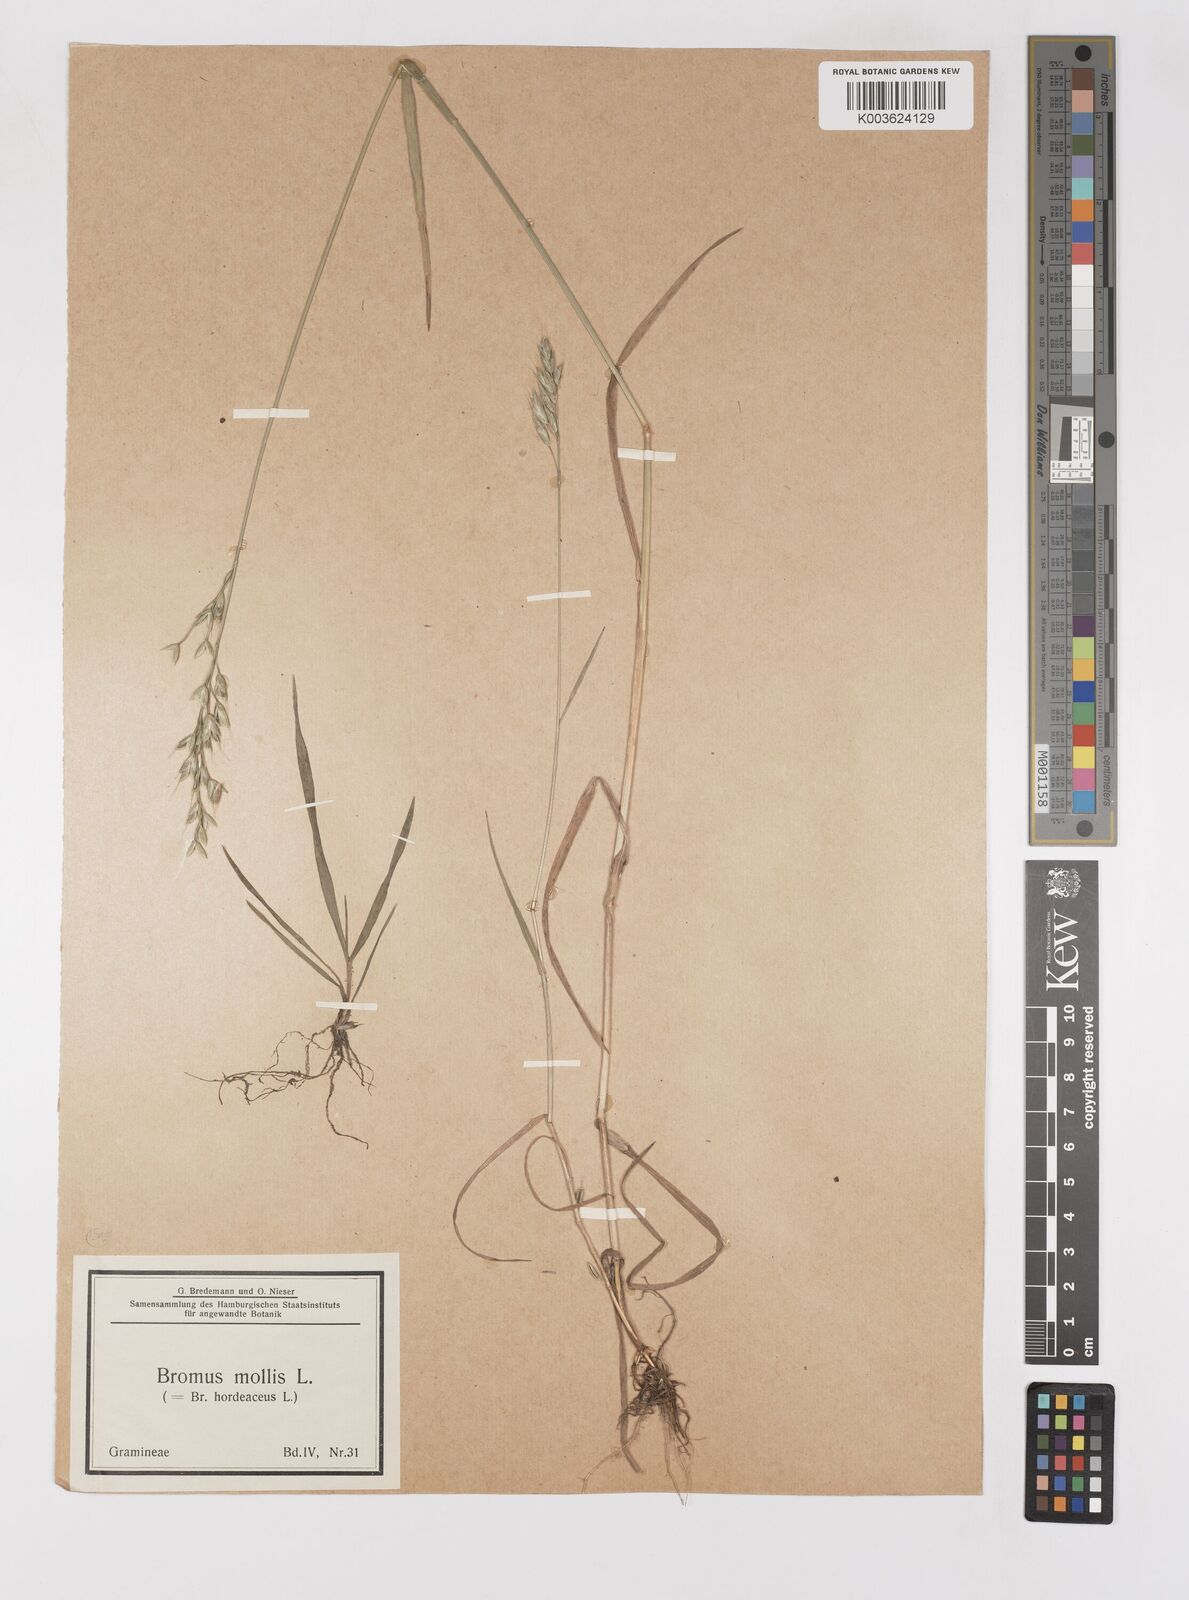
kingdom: Plantae
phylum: Tracheophyta
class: Liliopsida
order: Poales
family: Poaceae
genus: Bromus
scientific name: Bromus hordeaceus
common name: Soft brome
